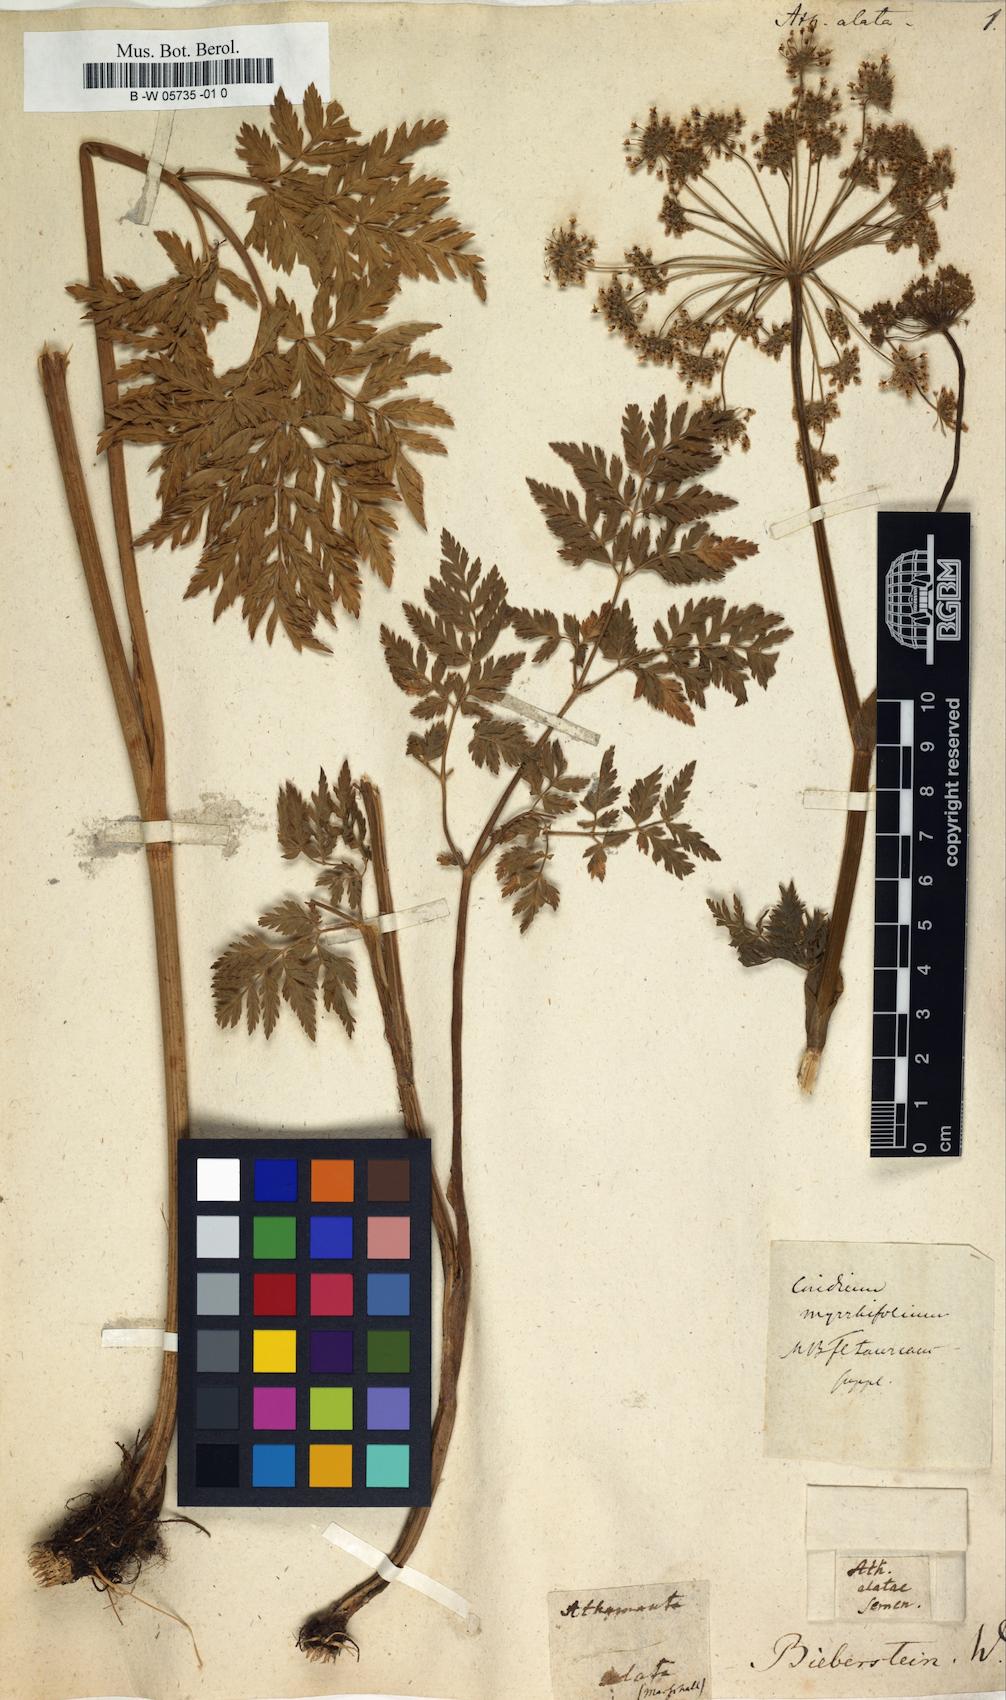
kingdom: Plantae
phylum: Tracheophyta
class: Magnoliopsida
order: Apiales
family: Apiaceae
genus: Selinum
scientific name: Selinum alatum
